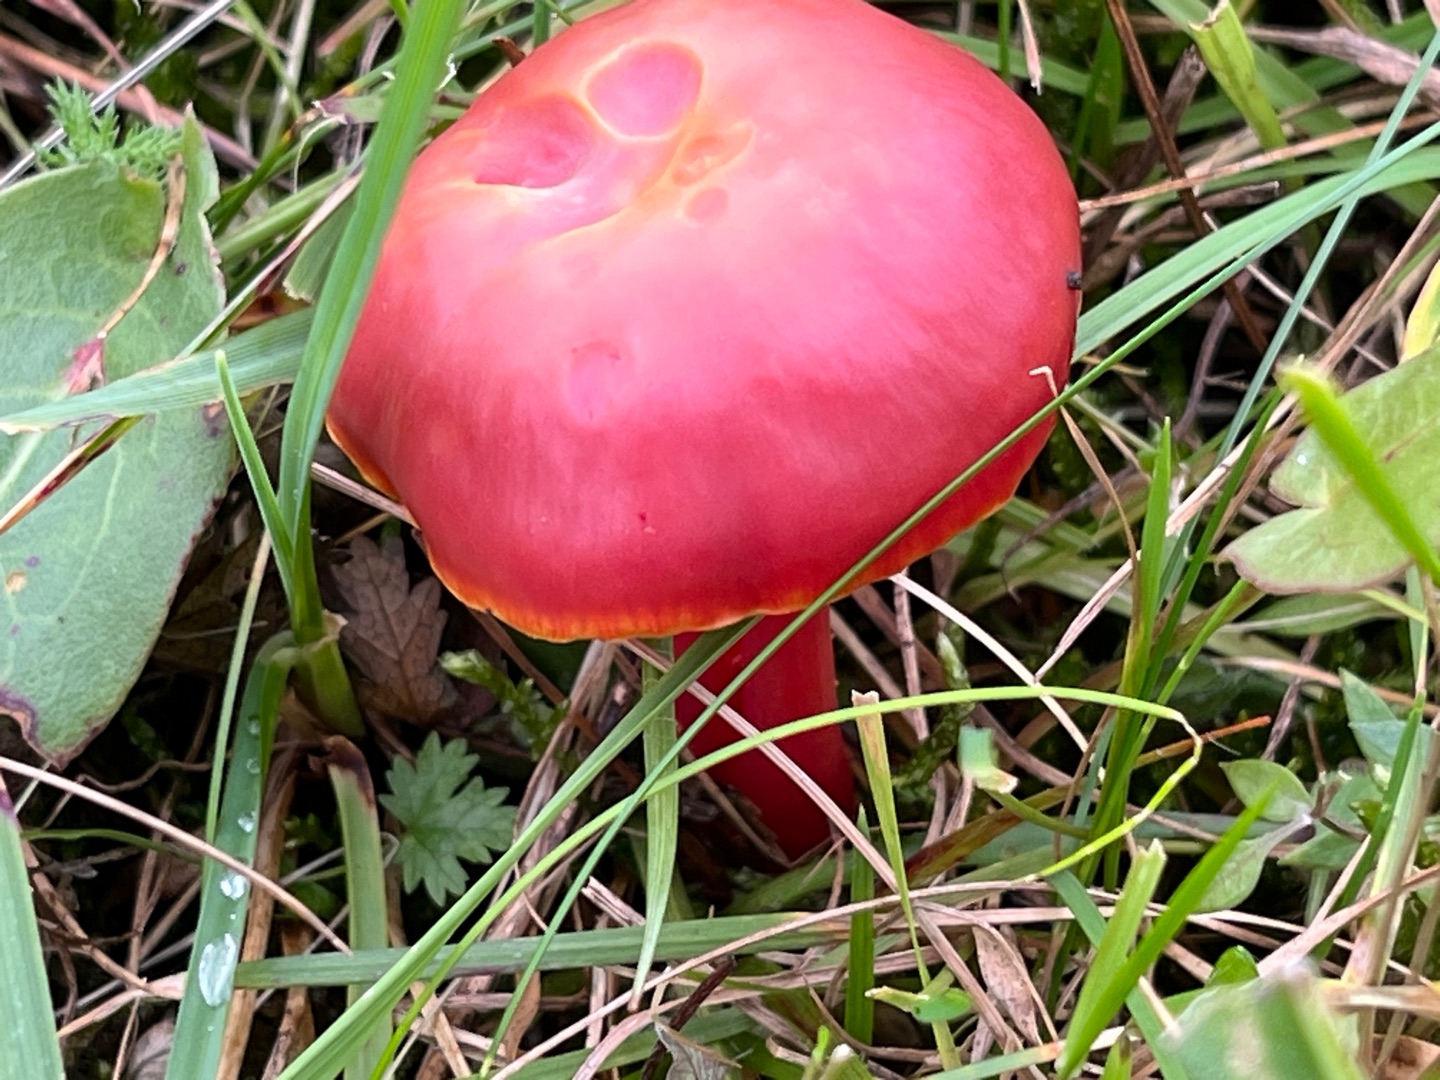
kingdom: Fungi
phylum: Basidiomycota
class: Agaricomycetes
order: Agaricales
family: Hygrophoraceae
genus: Hygrocybe
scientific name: Hygrocybe coccinea
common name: Cinnober-vokshat
